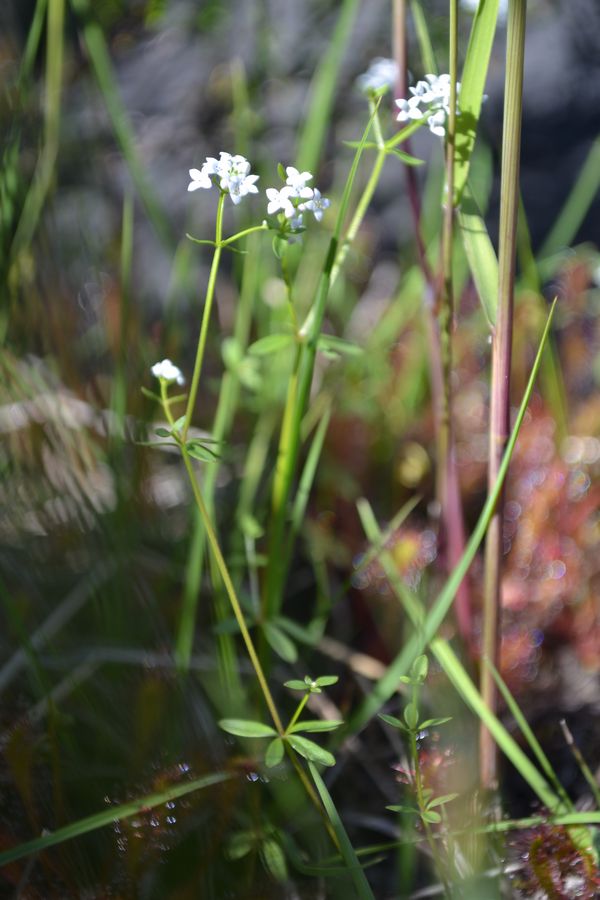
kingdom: Plantae
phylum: Tracheophyta
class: Magnoliopsida
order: Gentianales
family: Rubiaceae
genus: Galium
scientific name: Galium palustre
